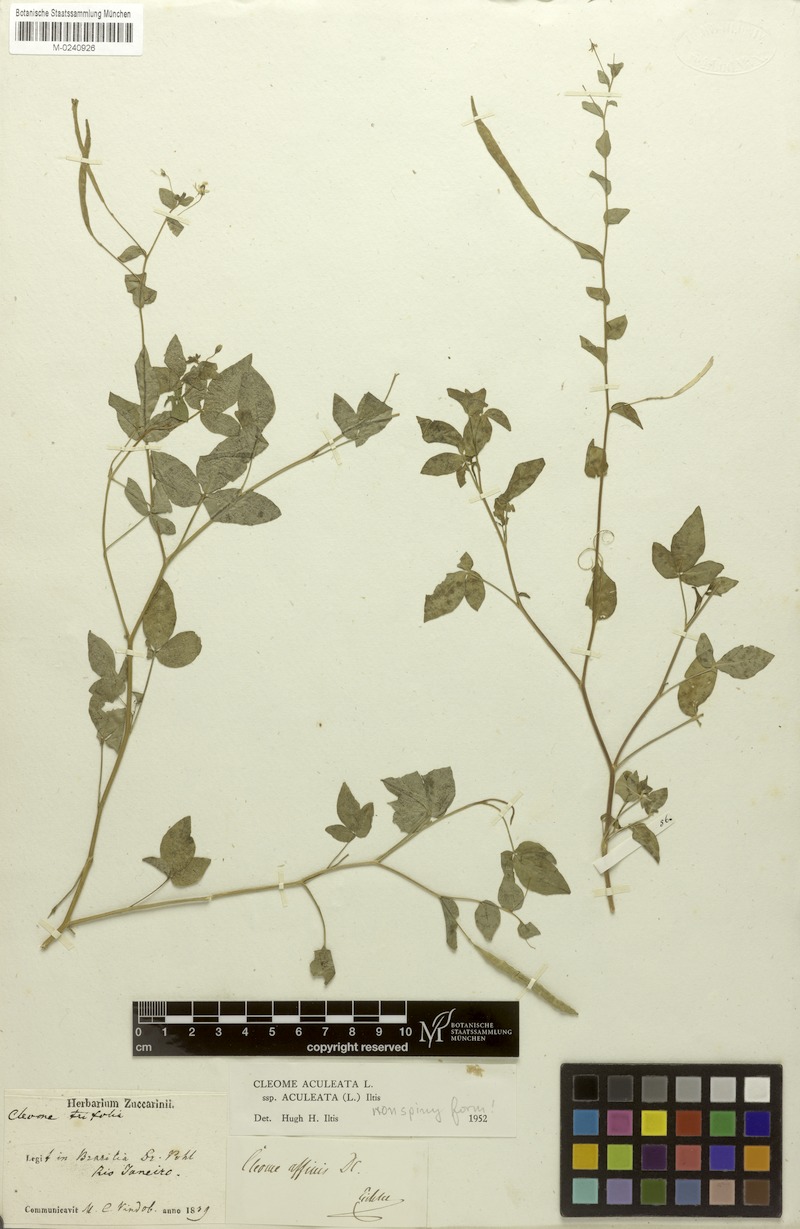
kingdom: Plantae
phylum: Tracheophyta
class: Magnoliopsida
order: Brassicales
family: Cleomaceae
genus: Tarenaya
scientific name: Tarenaya aculeata
